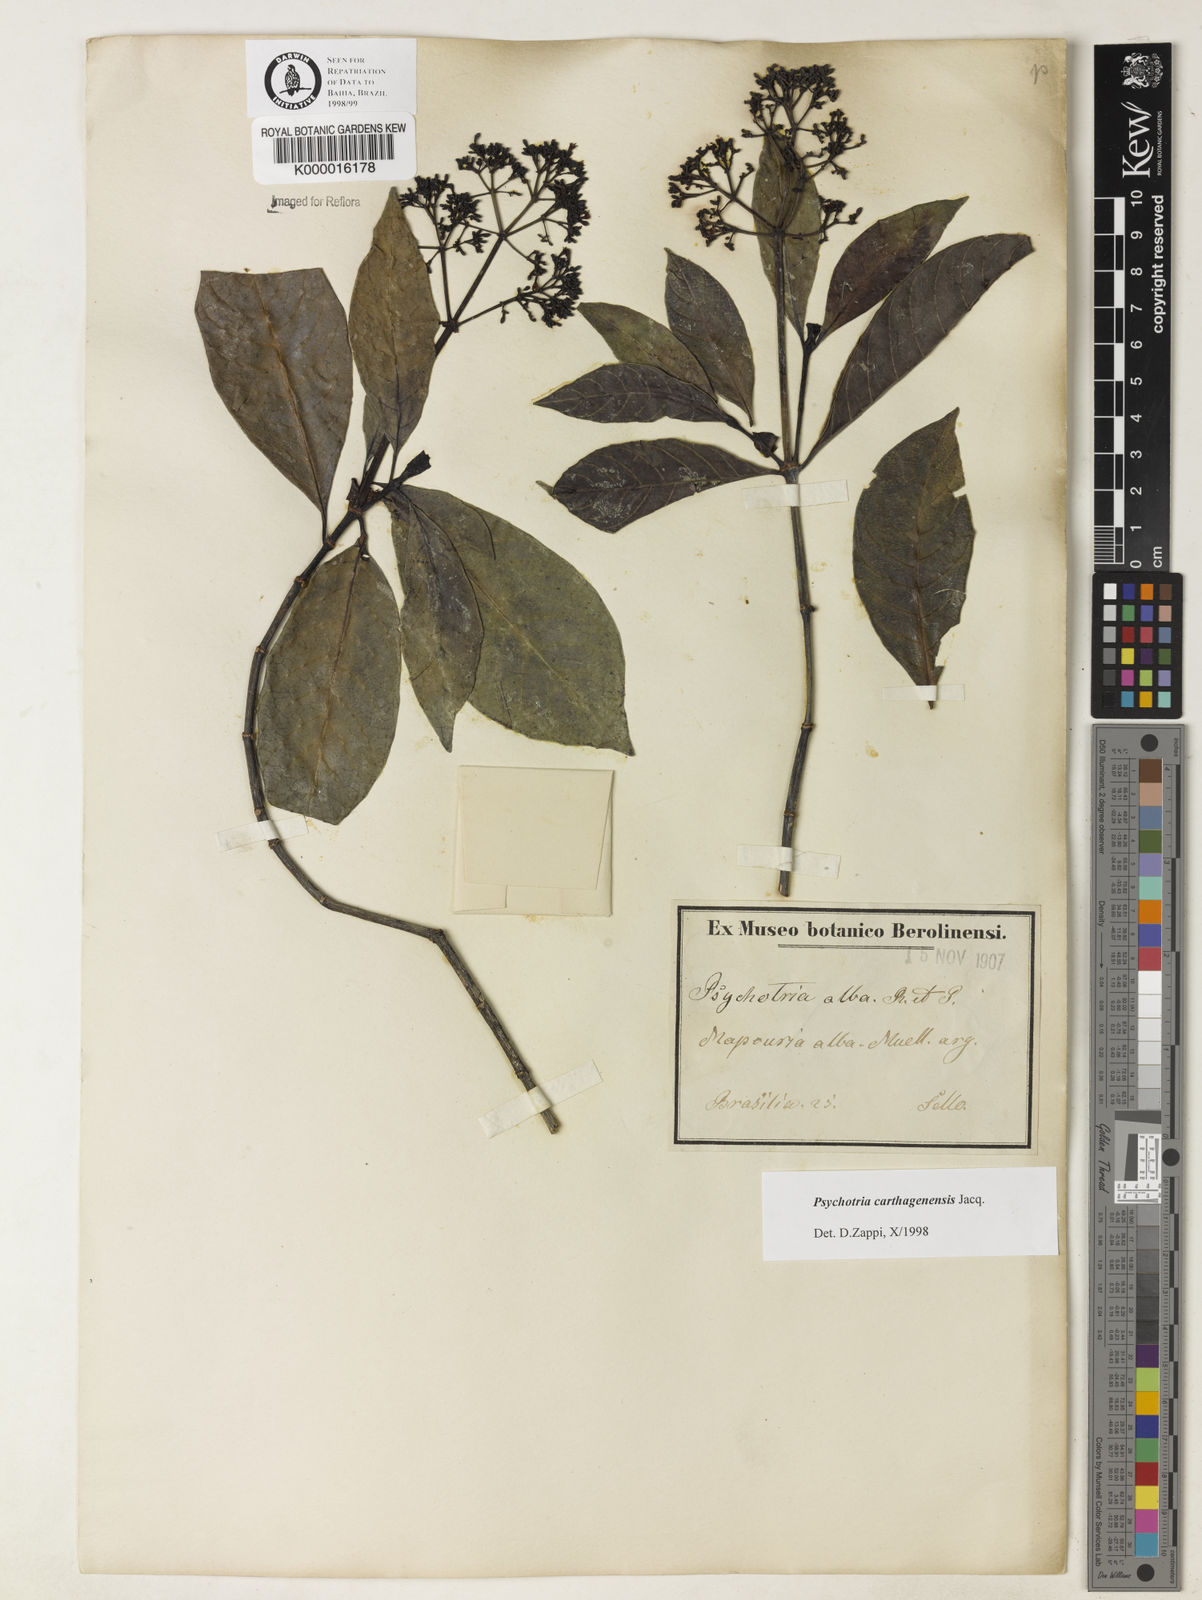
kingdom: Plantae
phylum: Tracheophyta
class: Magnoliopsida
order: Gentianales
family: Rubiaceae
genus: Psychotria
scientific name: Psychotria carthagenensis
